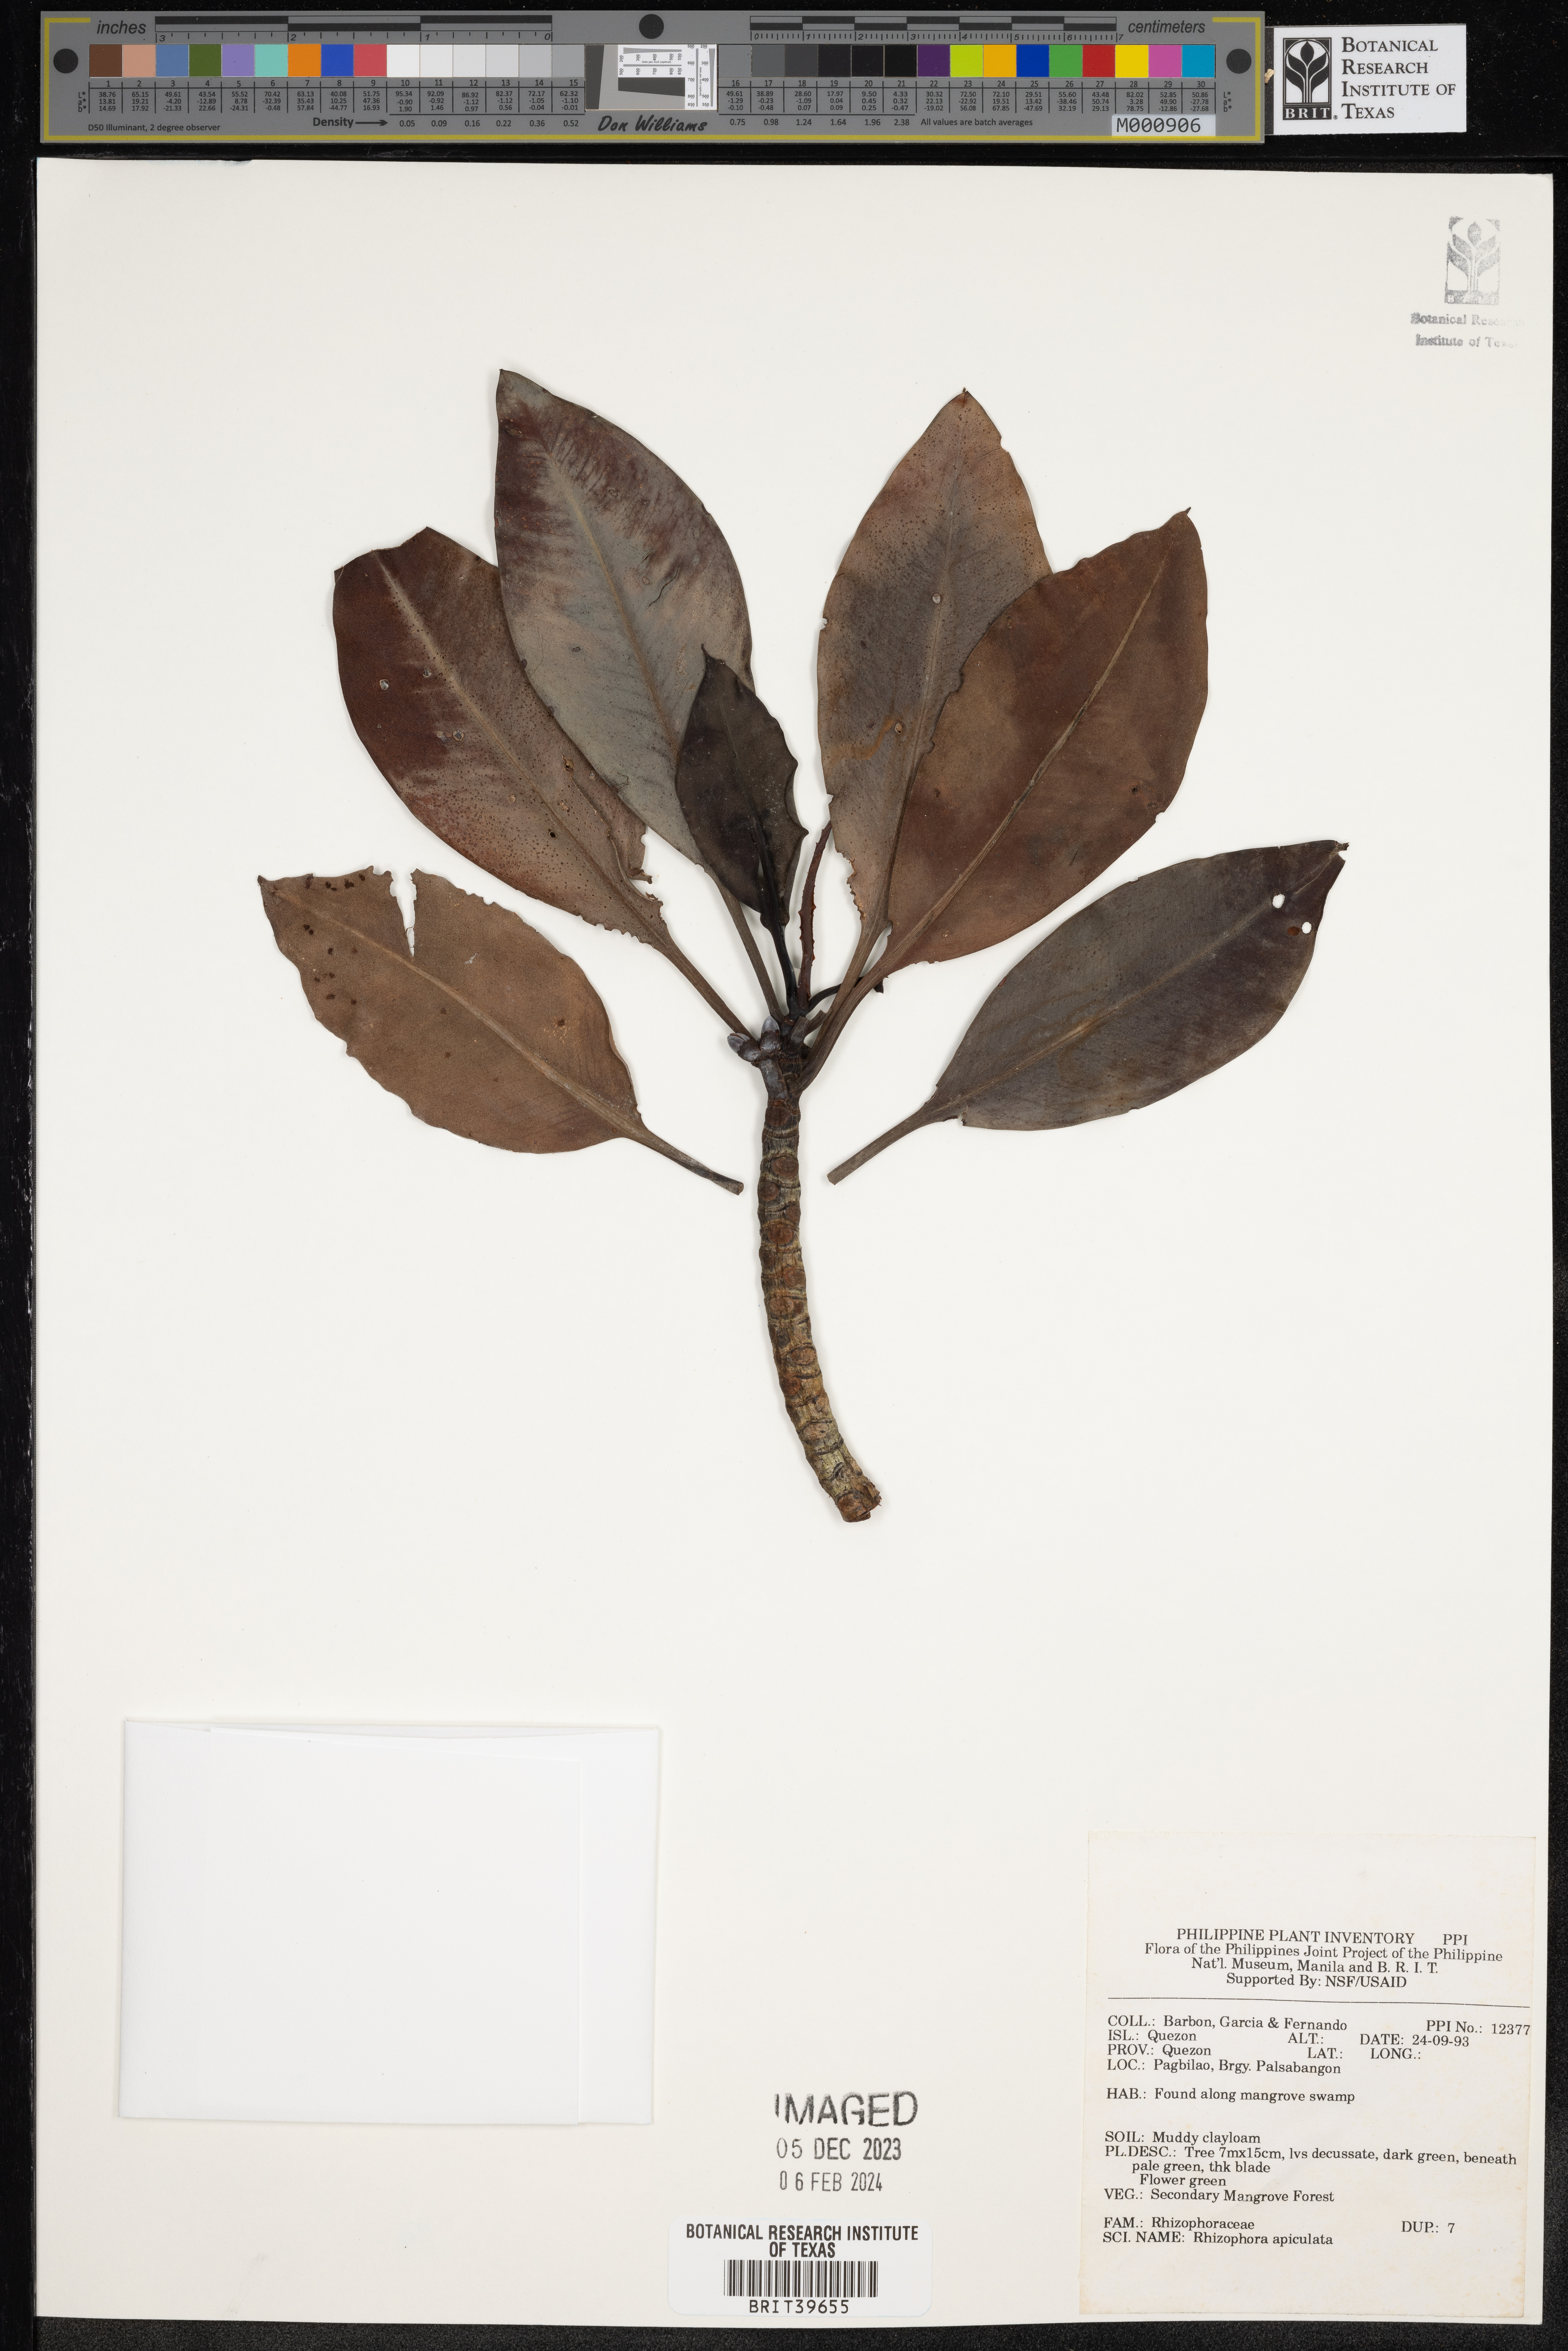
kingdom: Plantae
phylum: Tracheophyta
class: Magnoliopsida
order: Malpighiales
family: Rhizophoraceae
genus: Rhizophora
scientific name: Rhizophora apiculata
